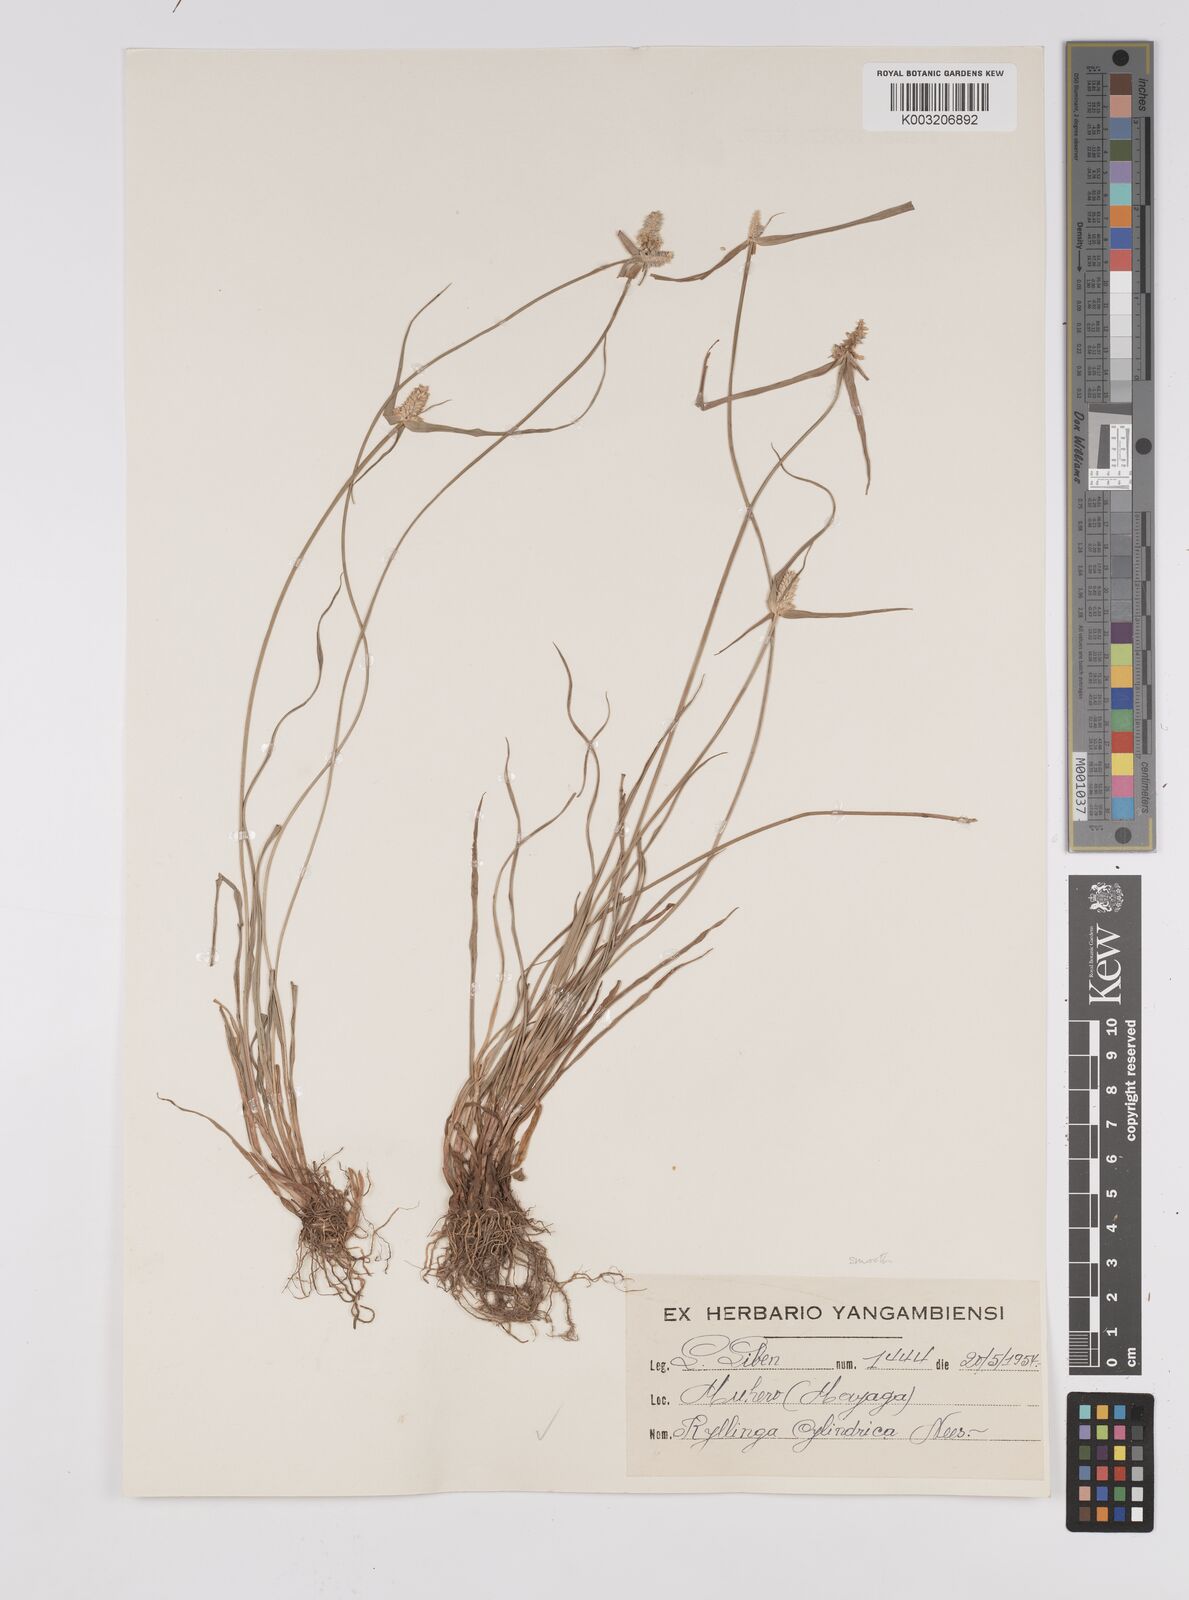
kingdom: Plantae
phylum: Tracheophyta
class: Liliopsida
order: Poales
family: Cyperaceae
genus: Cyperus
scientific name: Cyperus odoratus
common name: Fragrant flatsedge
